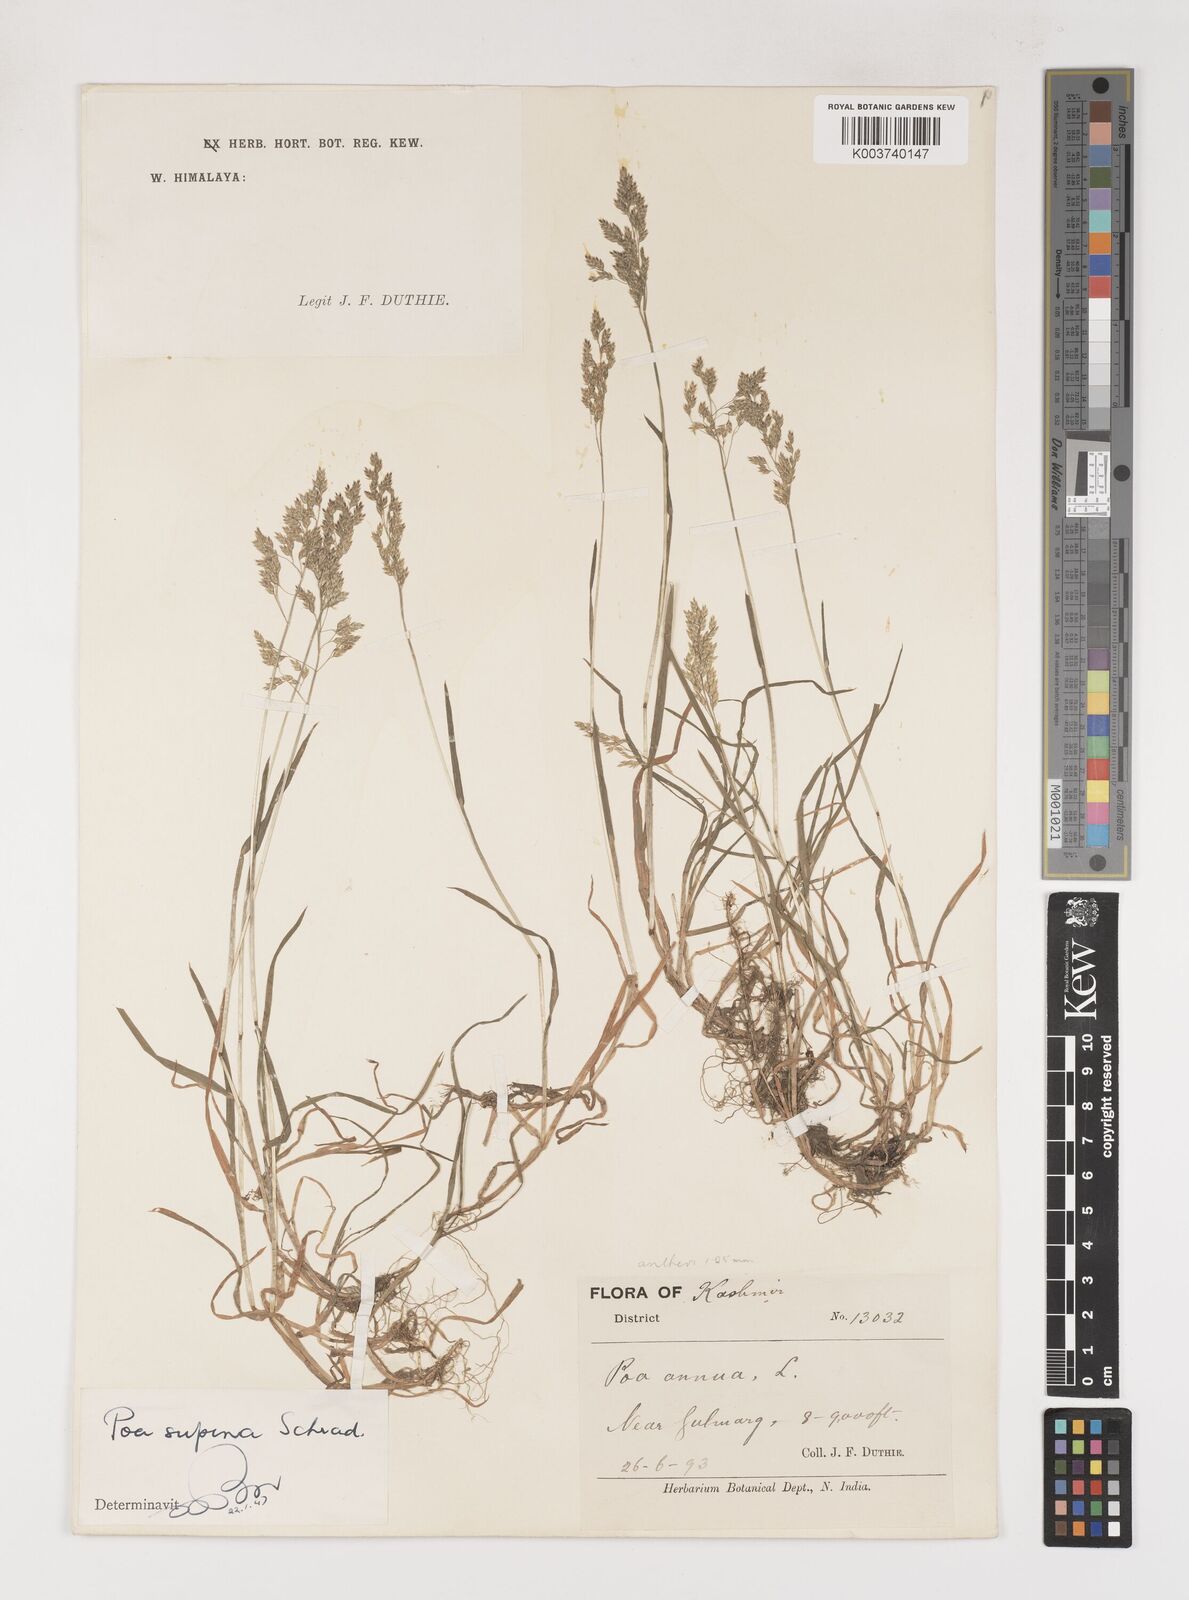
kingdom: Plantae
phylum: Tracheophyta
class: Liliopsida
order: Poales
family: Poaceae
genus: Poa
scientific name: Poa supina
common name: Supina bluegrass
